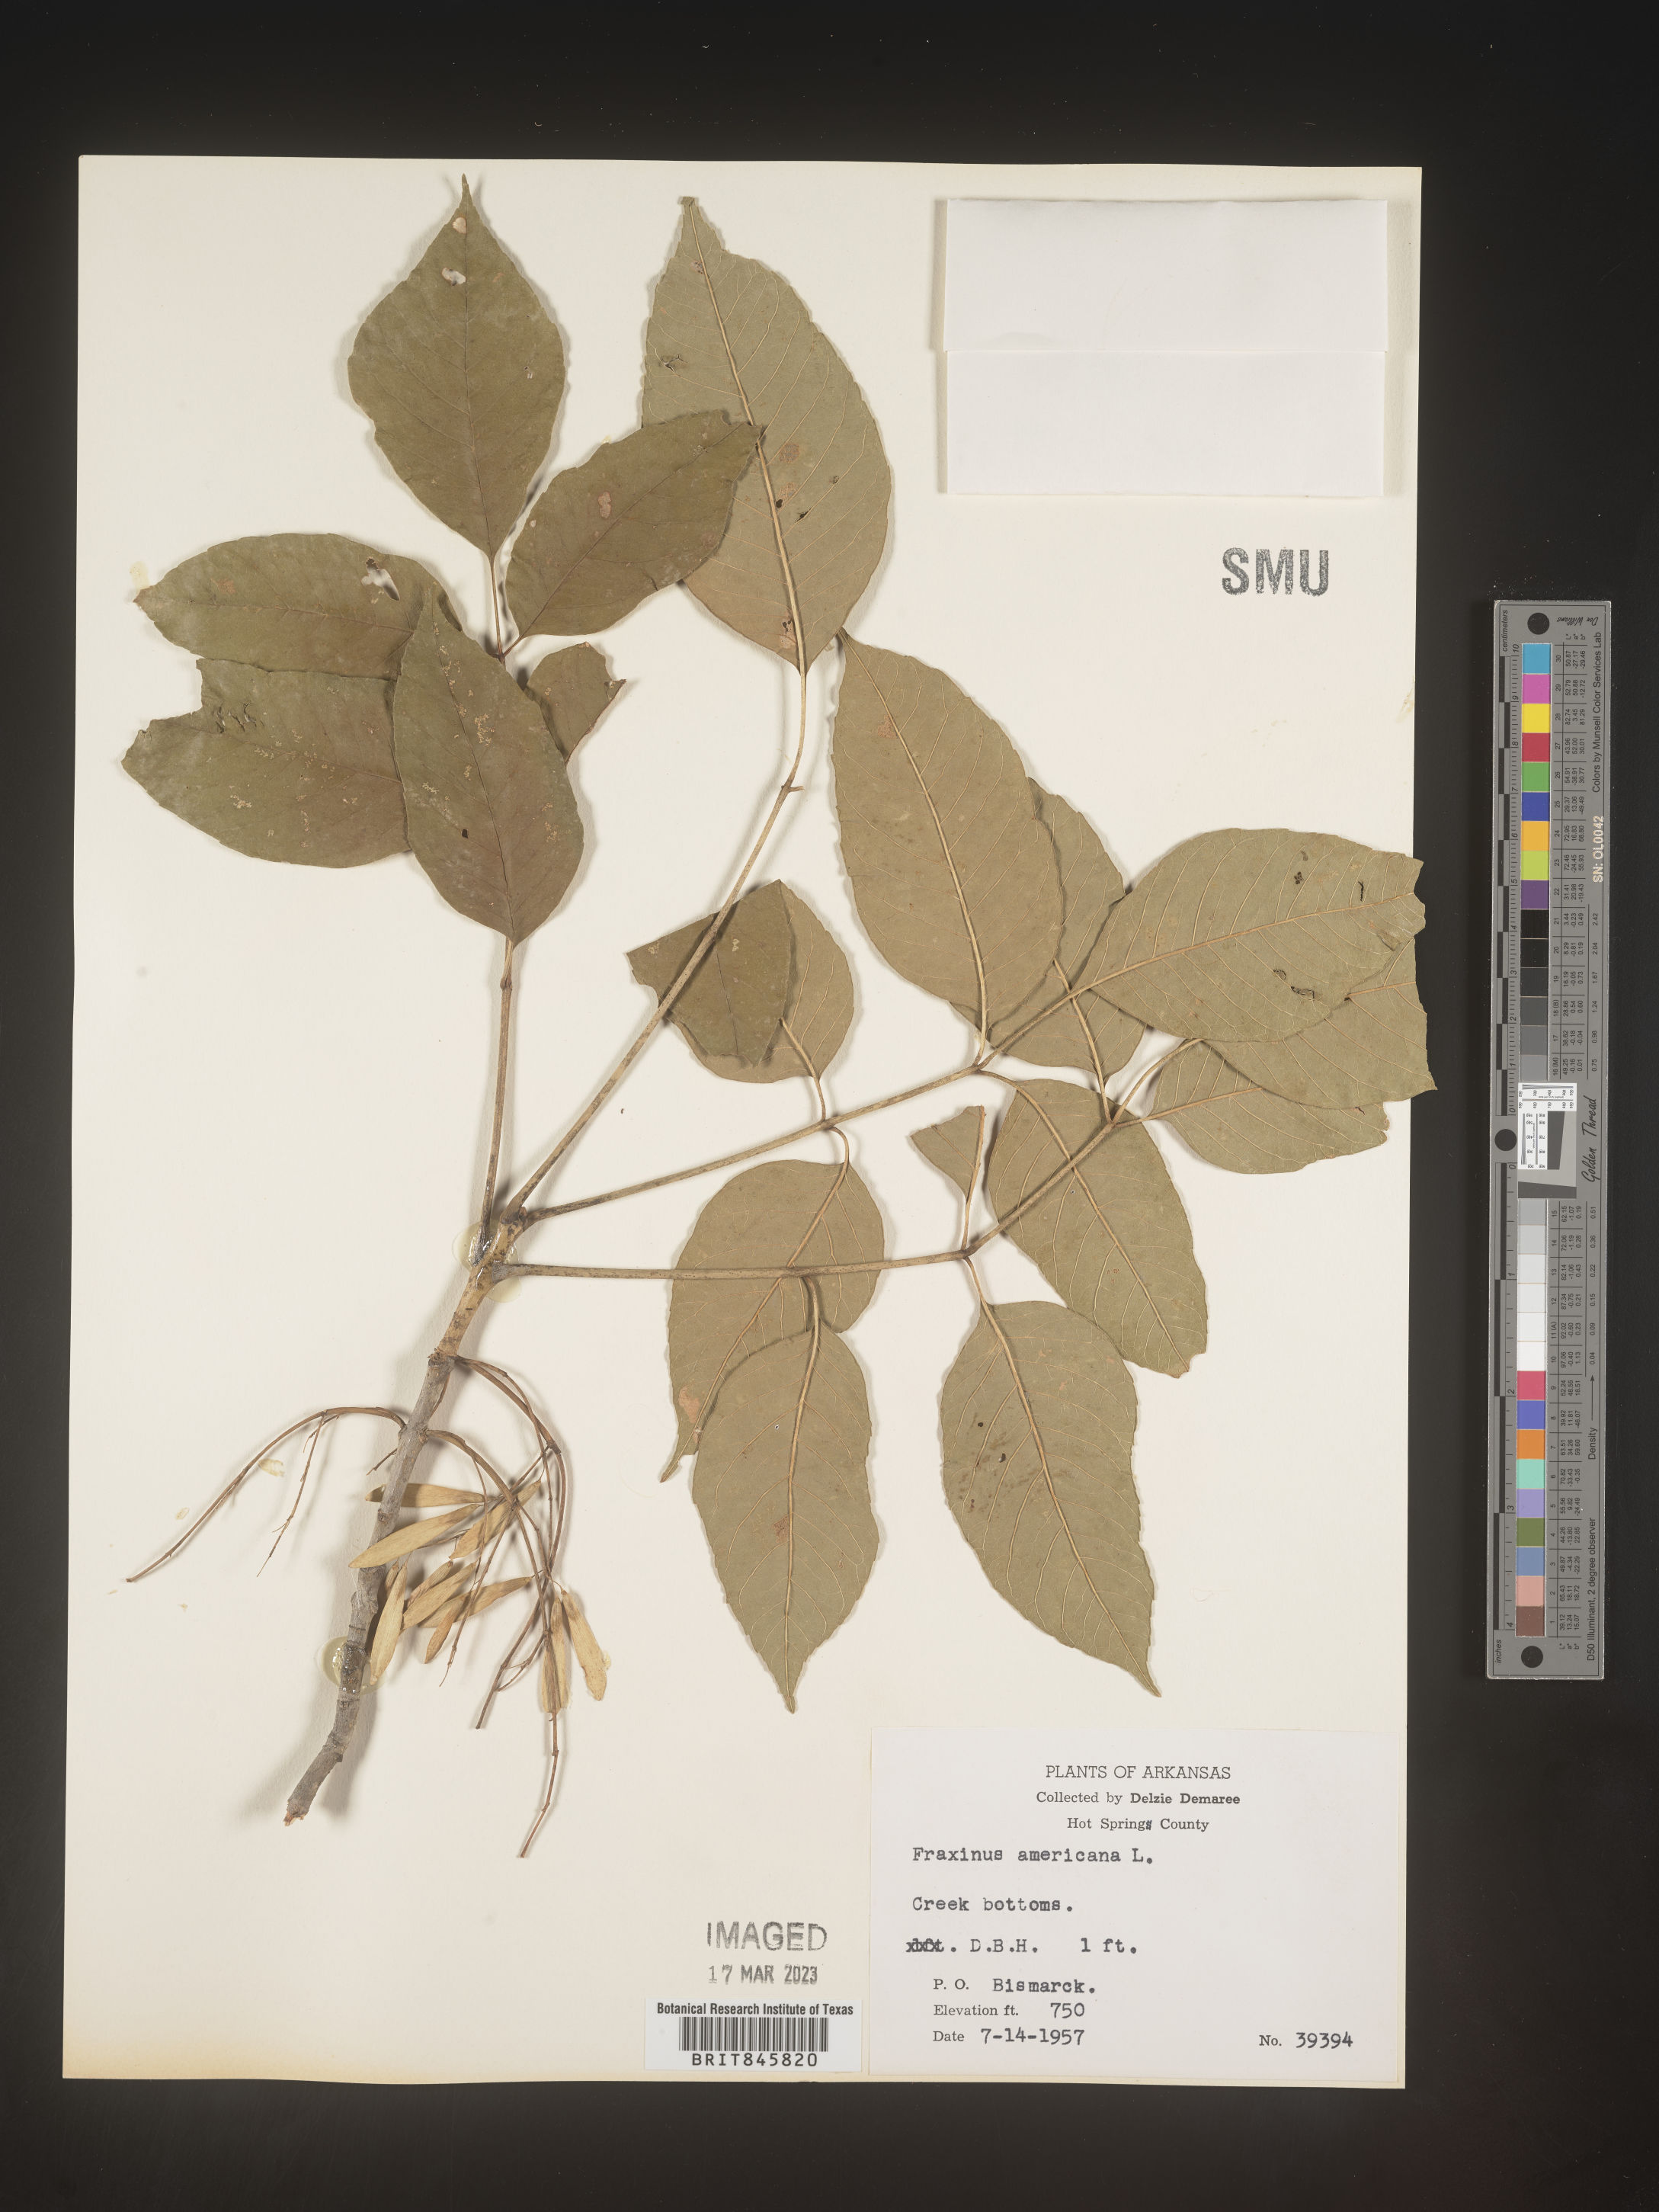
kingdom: Plantae
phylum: Tracheophyta
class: Magnoliopsida
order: Lamiales
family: Oleaceae
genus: Fraxinus
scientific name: Fraxinus americana
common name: White ash
